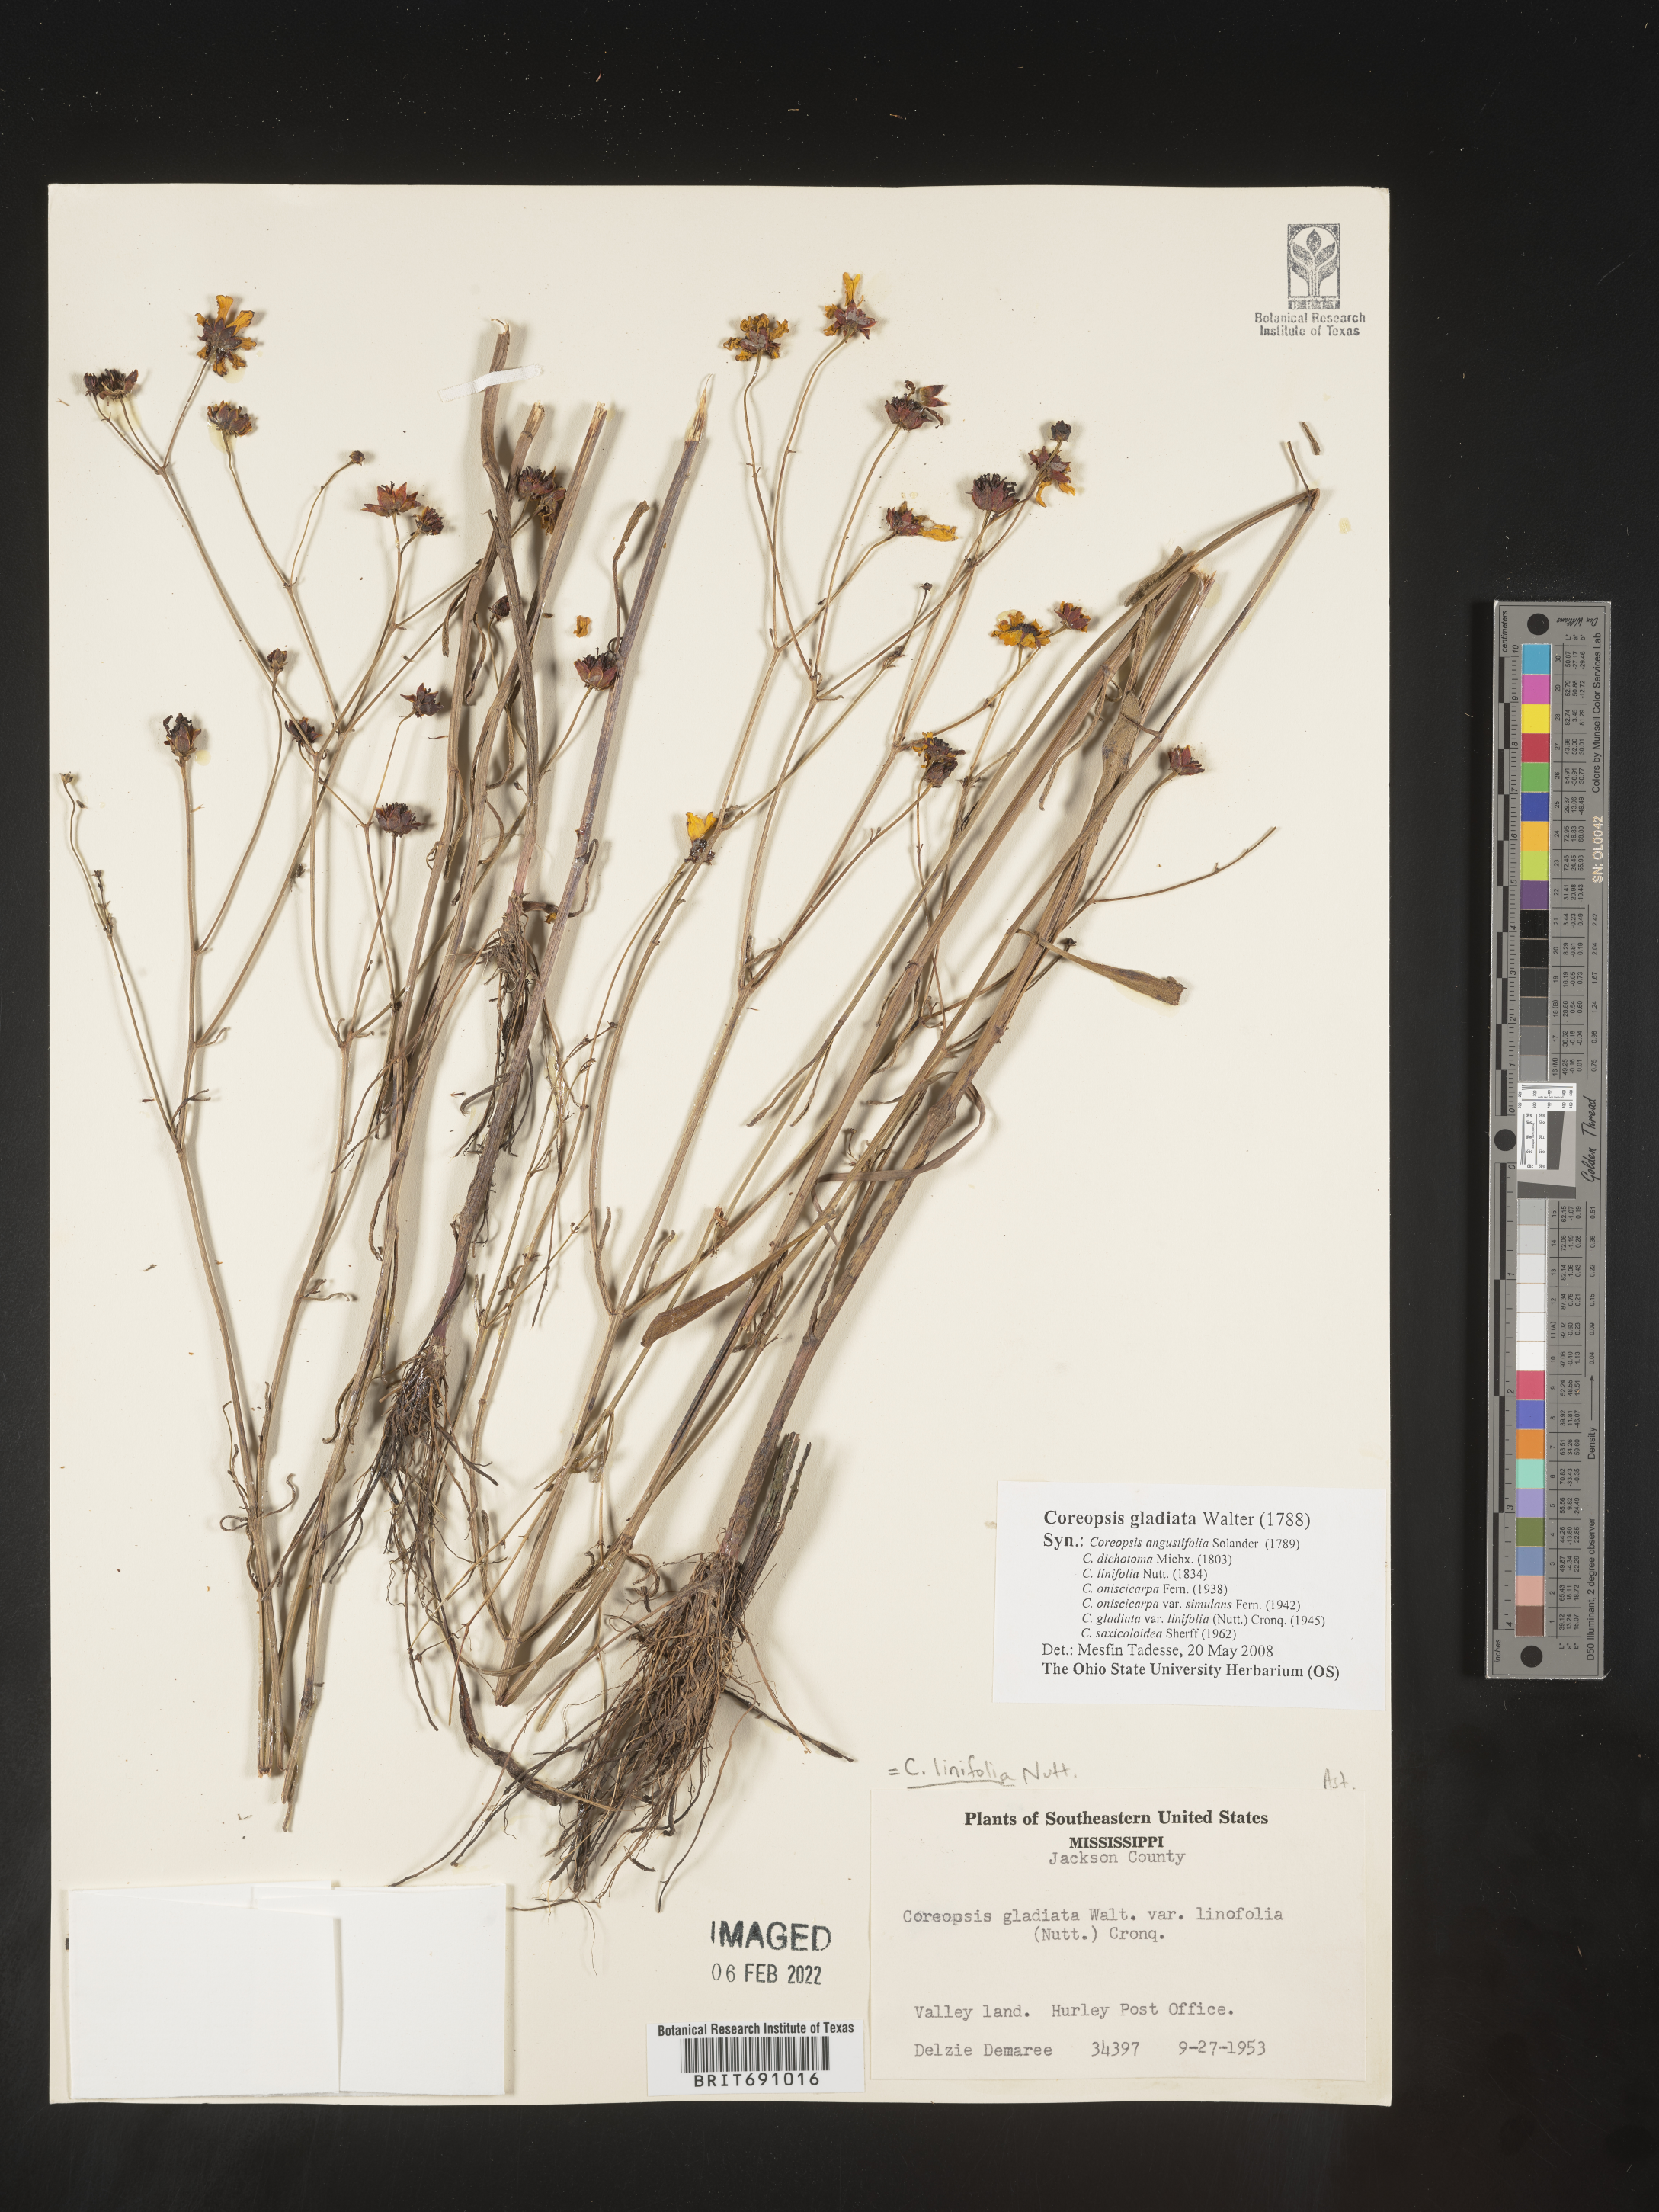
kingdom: Plantae
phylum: Tracheophyta
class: Magnoliopsida
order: Asterales
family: Asteraceae
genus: Coreopsis
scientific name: Coreopsis gladiata
